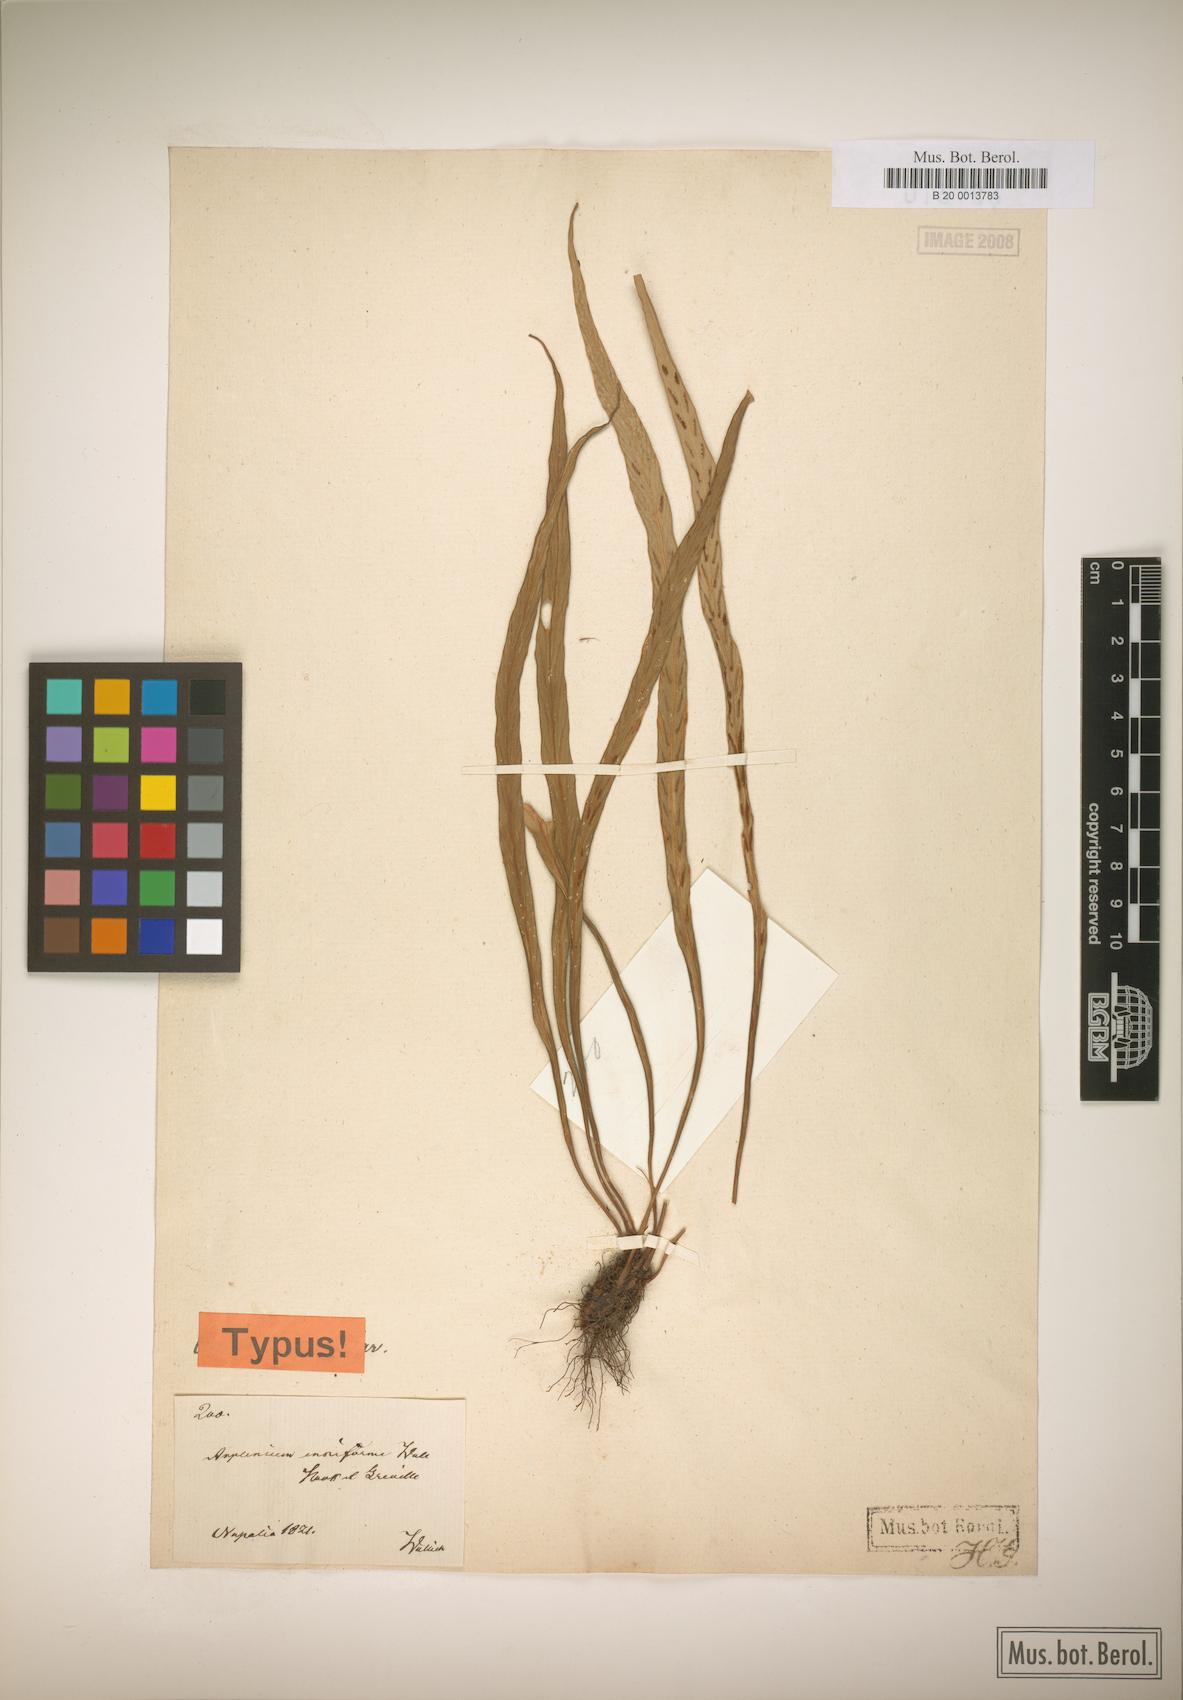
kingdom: Plantae
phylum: Tracheophyta
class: Polypodiopsida
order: Polypodiales
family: Aspleniaceae
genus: Asplenium
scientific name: Asplenium ensiforme
